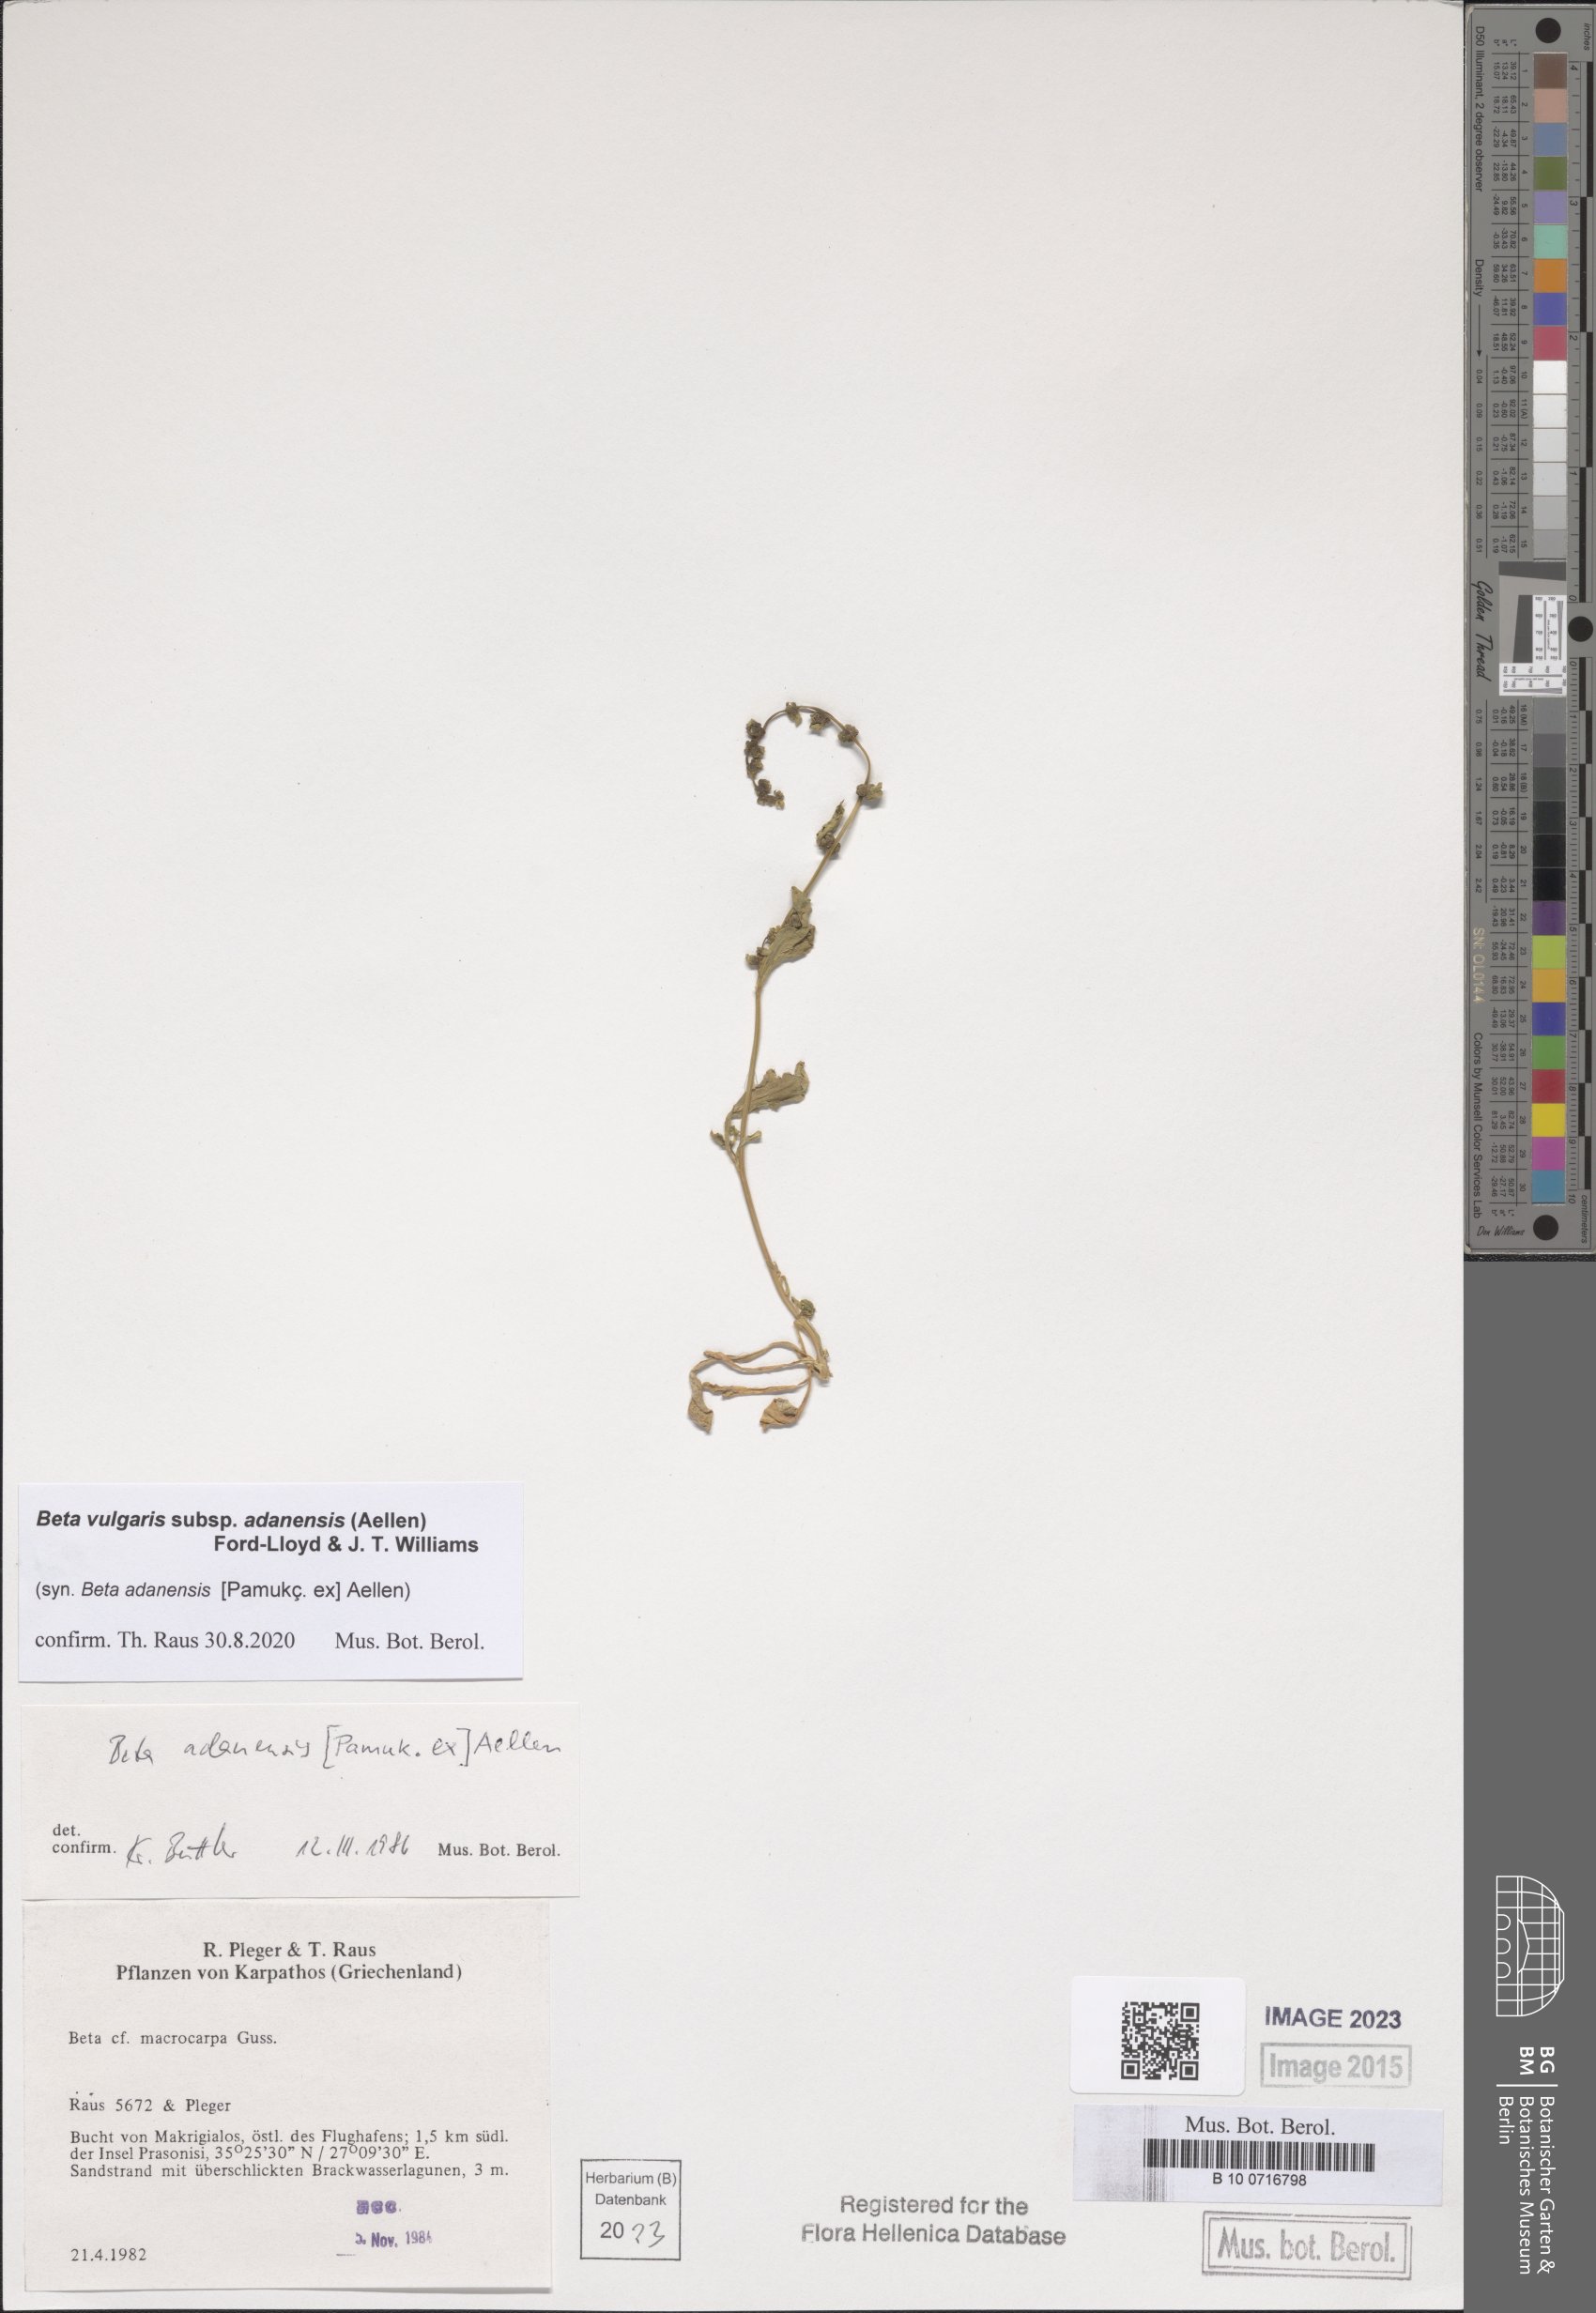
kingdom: Plantae
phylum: Tracheophyta
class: Magnoliopsida
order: Caryophyllales
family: Amaranthaceae
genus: Beta
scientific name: Beta adanensis
